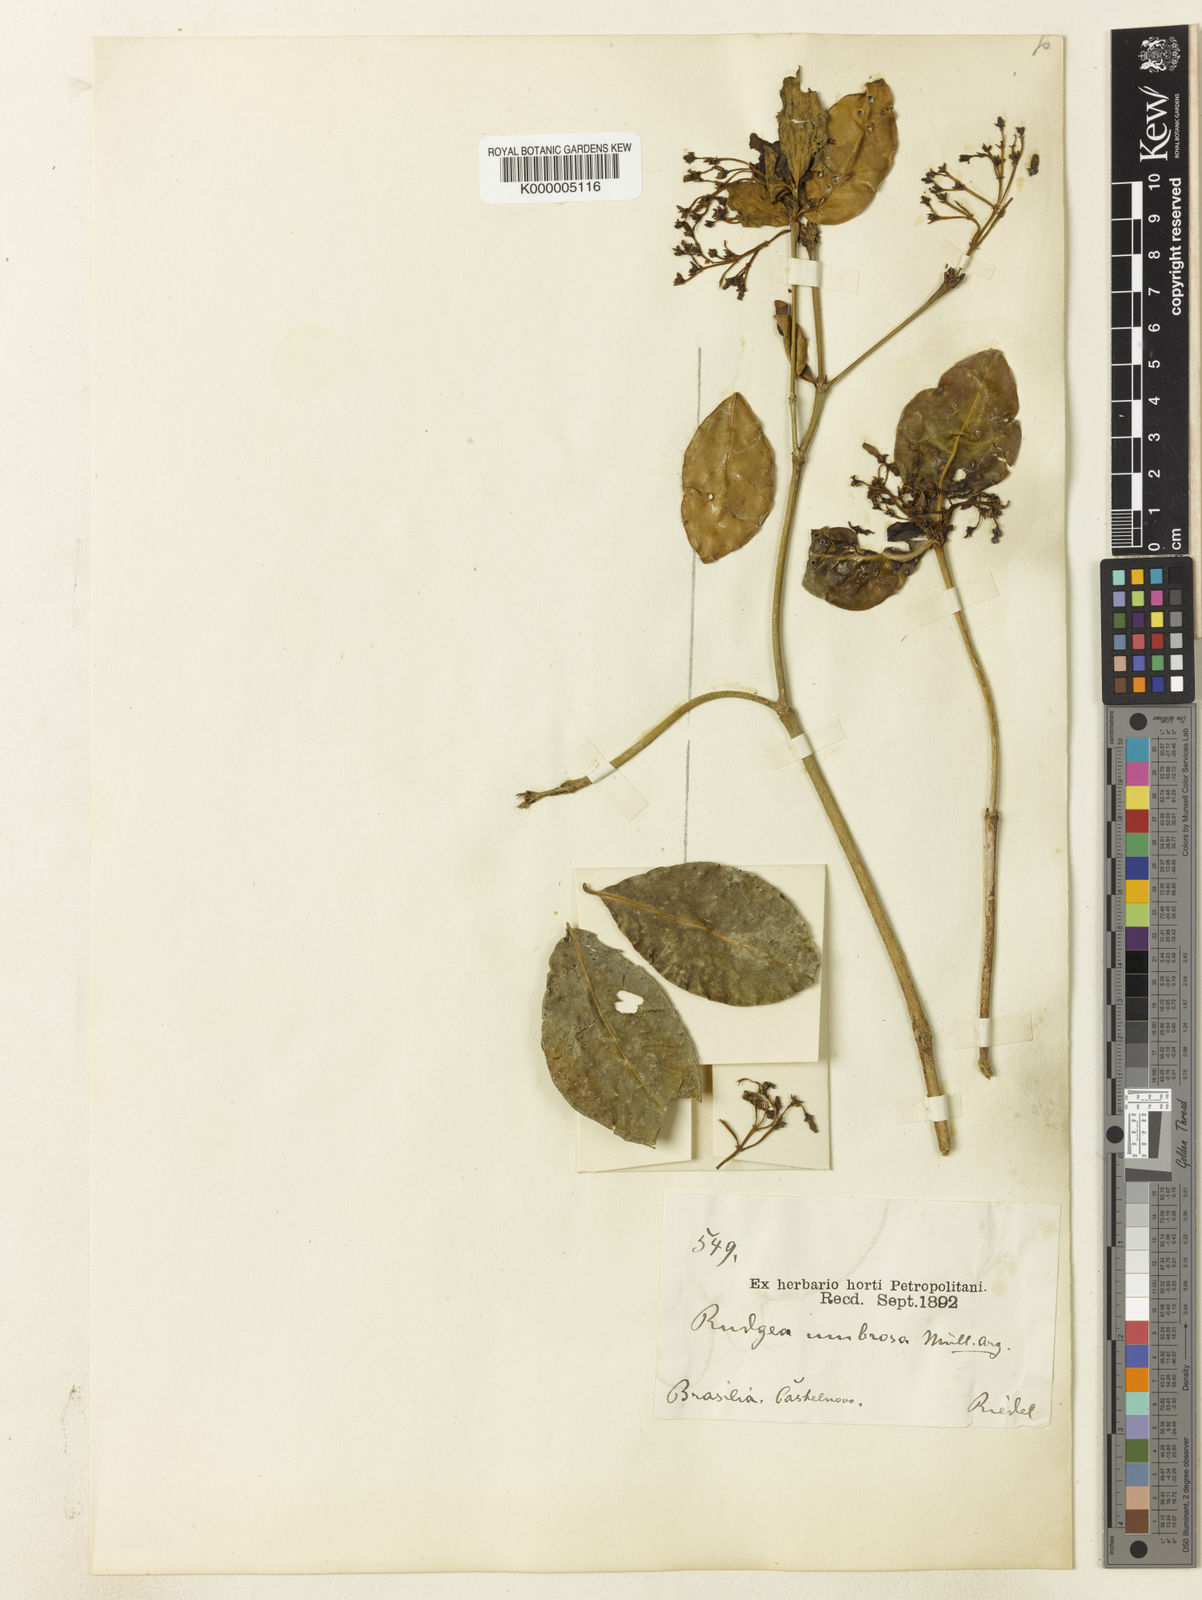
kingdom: Plantae
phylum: Tracheophyta
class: Magnoliopsida
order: Gentianales
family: Rubiaceae
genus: Rudgea
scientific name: Rudgea
